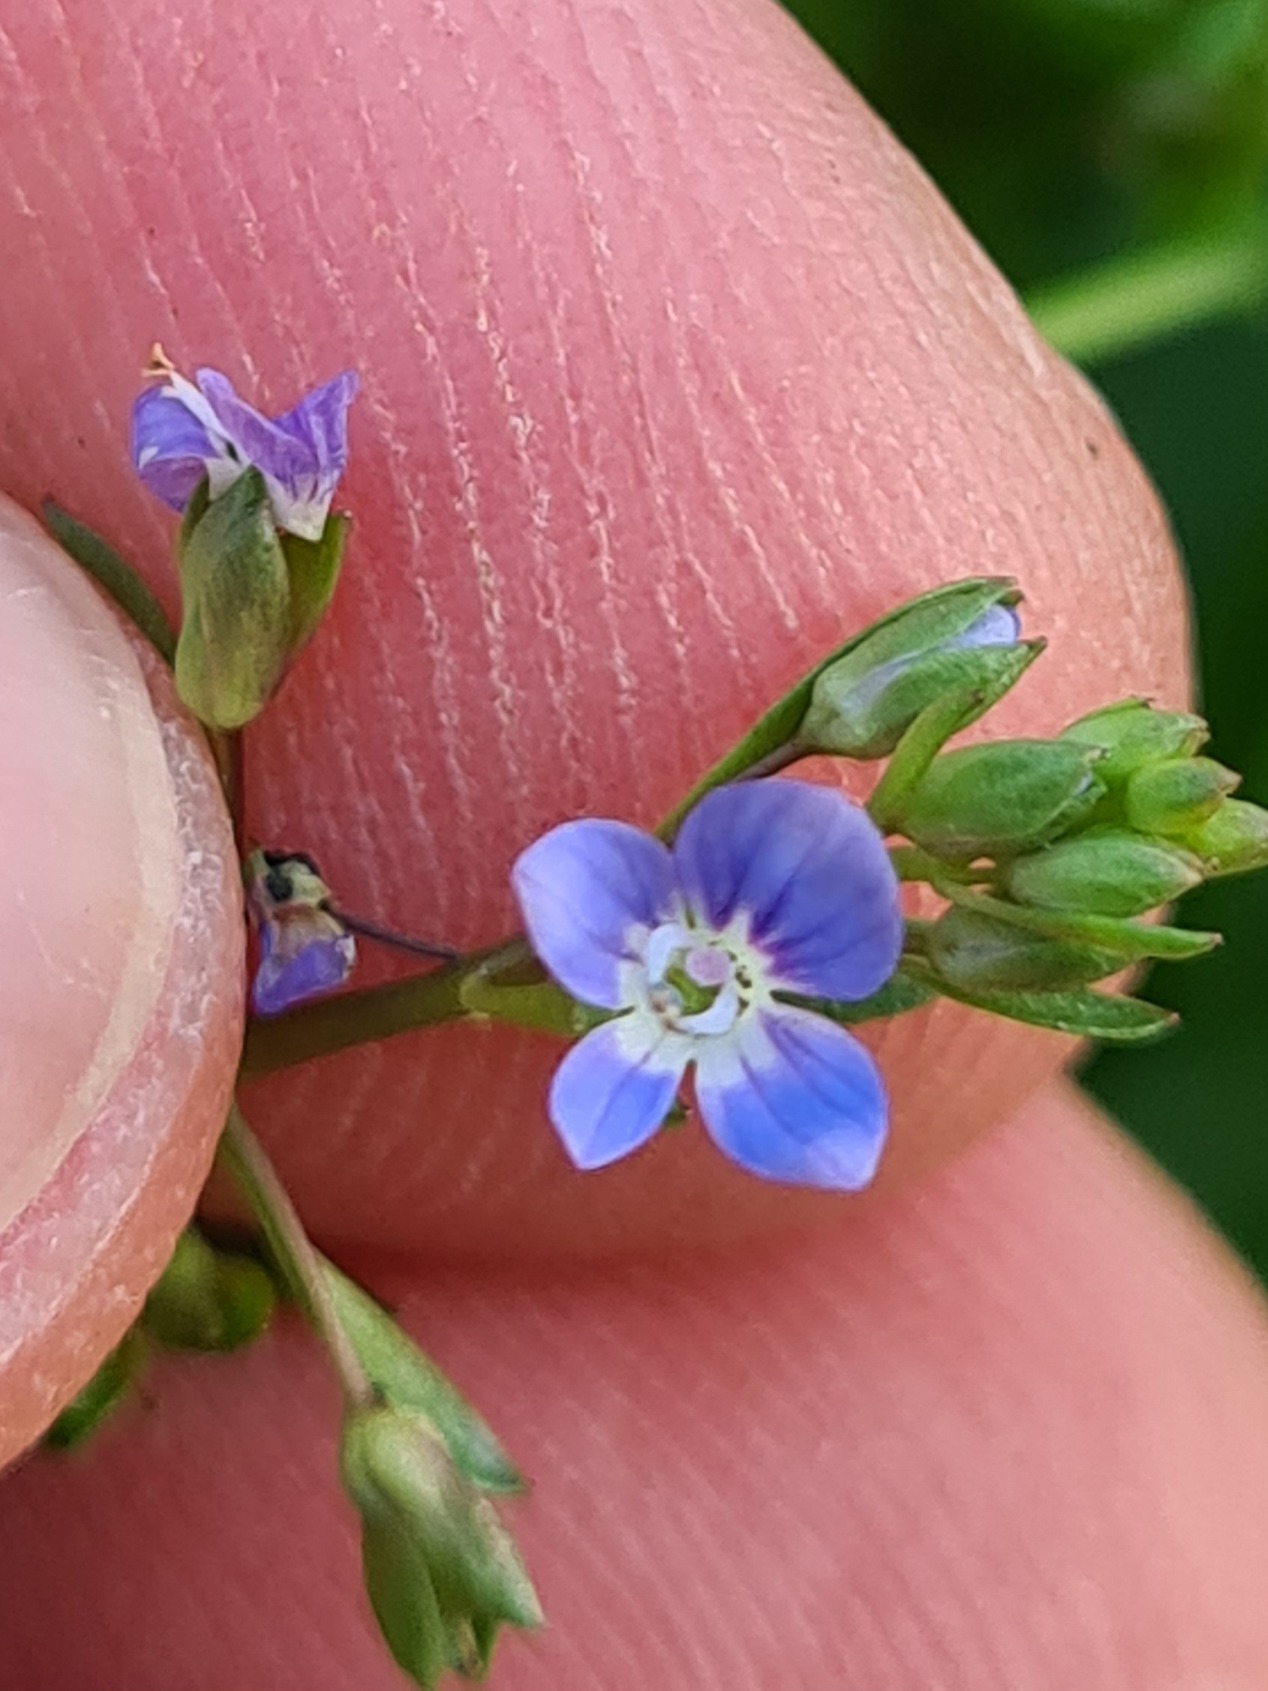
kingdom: Plantae
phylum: Tracheophyta
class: Magnoliopsida
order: Lamiales
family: Plantaginaceae
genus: Veronica
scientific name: Veronica beccabunga
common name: Tykbladet ærenpris
